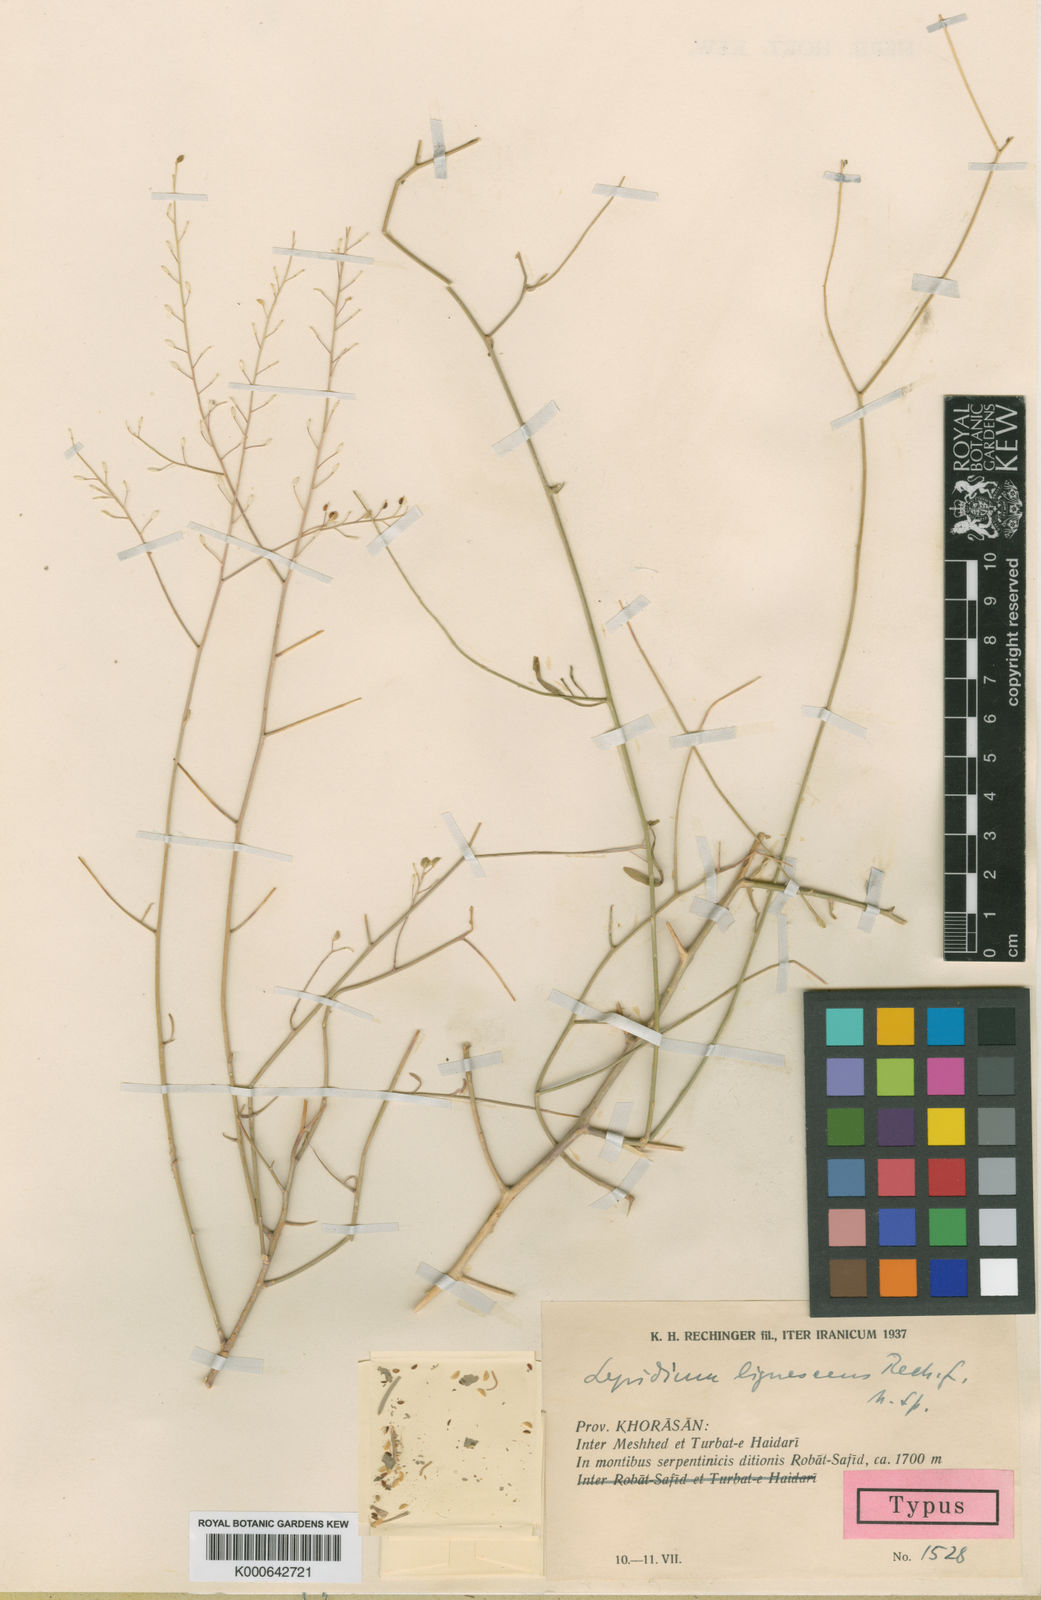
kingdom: Plantae
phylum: Tracheophyta
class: Magnoliopsida
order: Brassicales
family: Brassicaceae
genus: Lepidium
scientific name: Lepidium persicum
